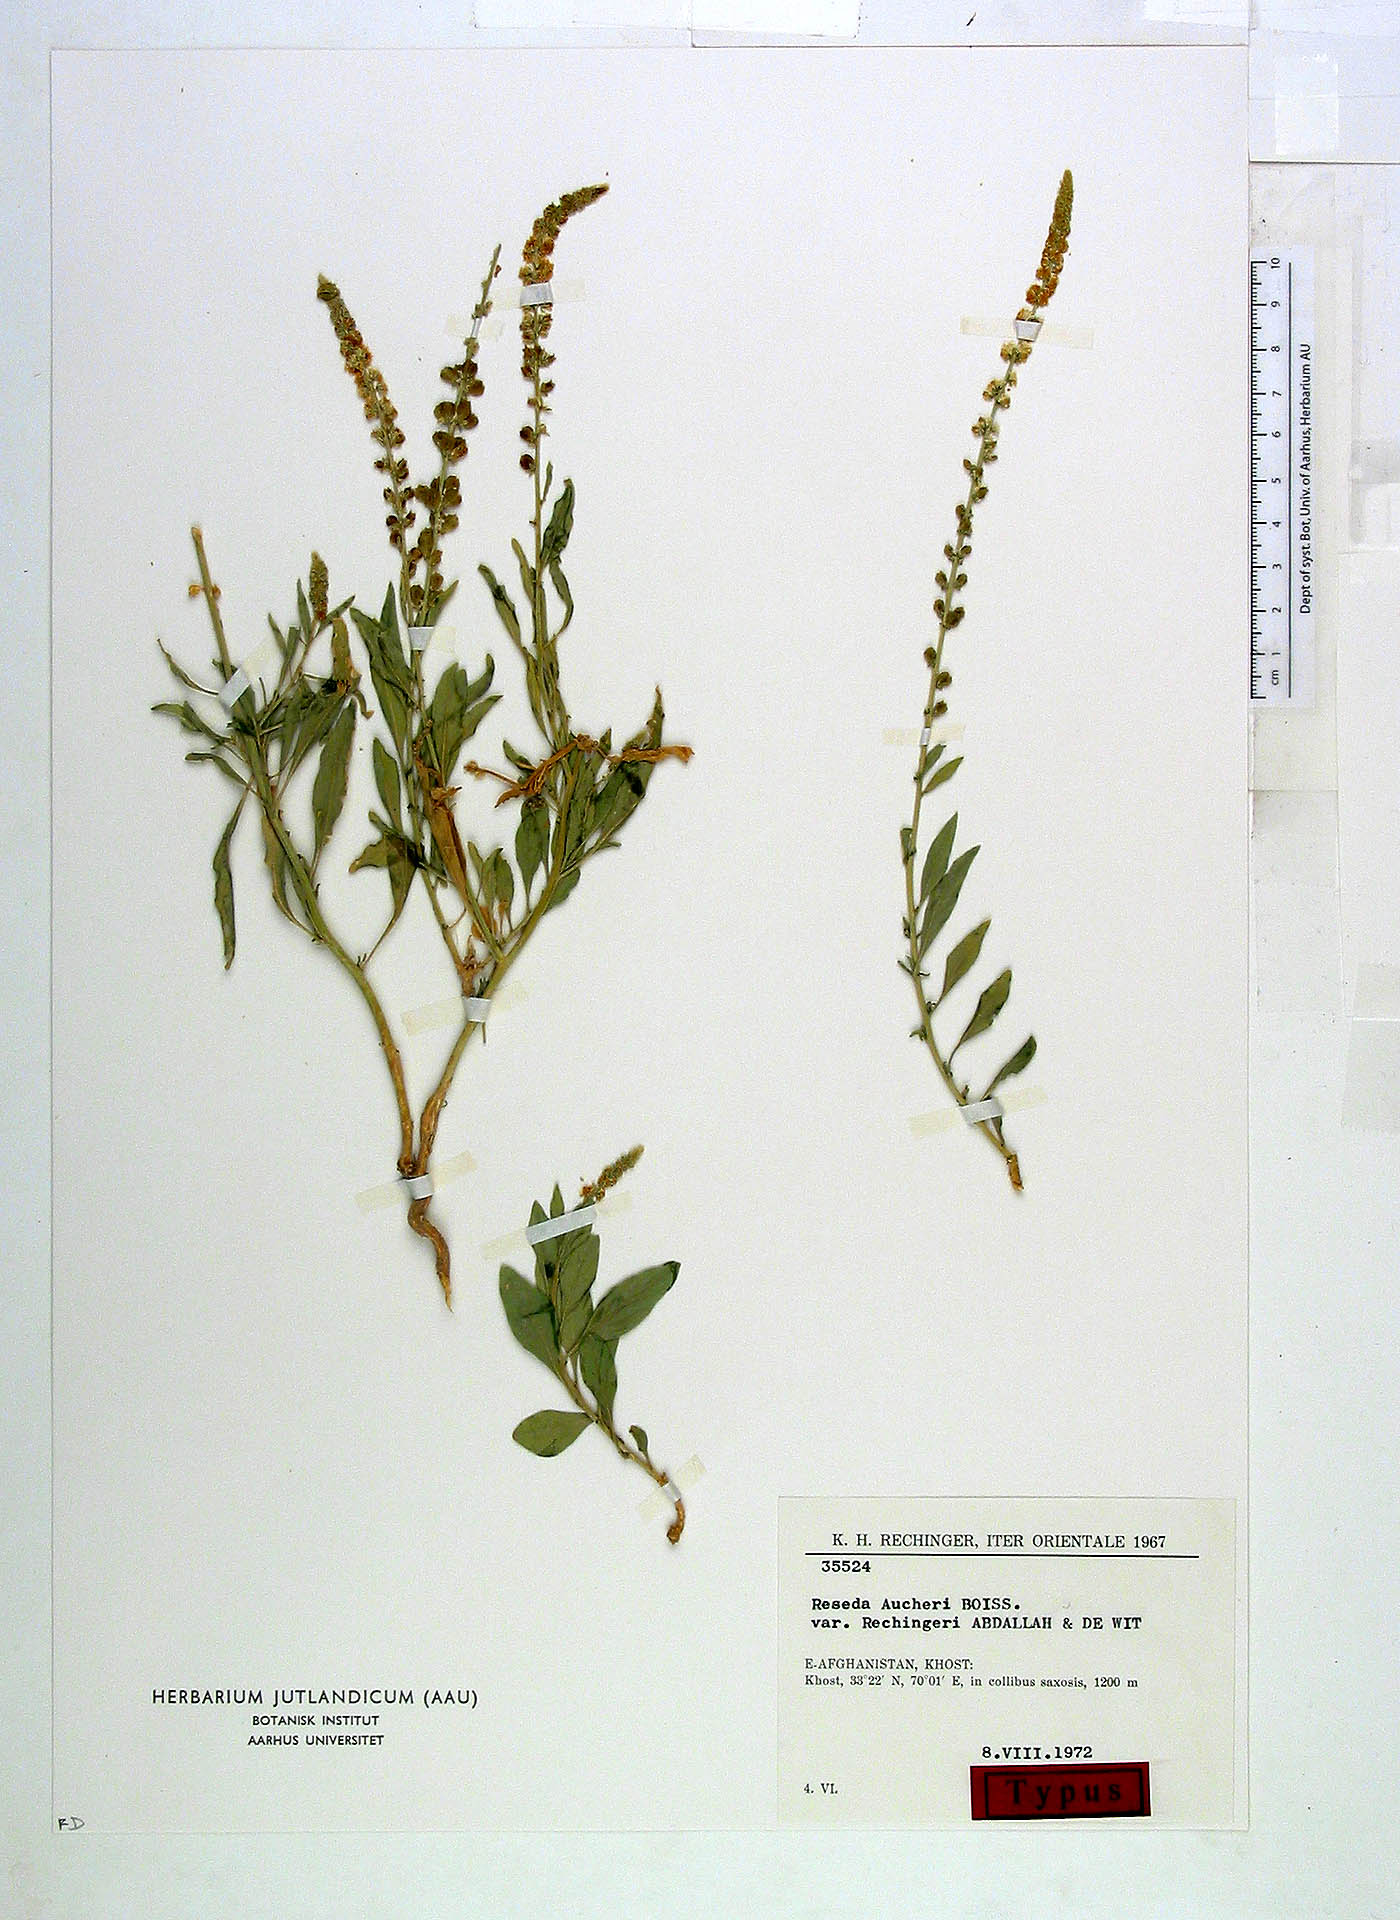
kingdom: Plantae
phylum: Tracheophyta
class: Magnoliopsida
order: Brassicales
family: Resedaceae
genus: Reseda
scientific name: Reseda aucheri
